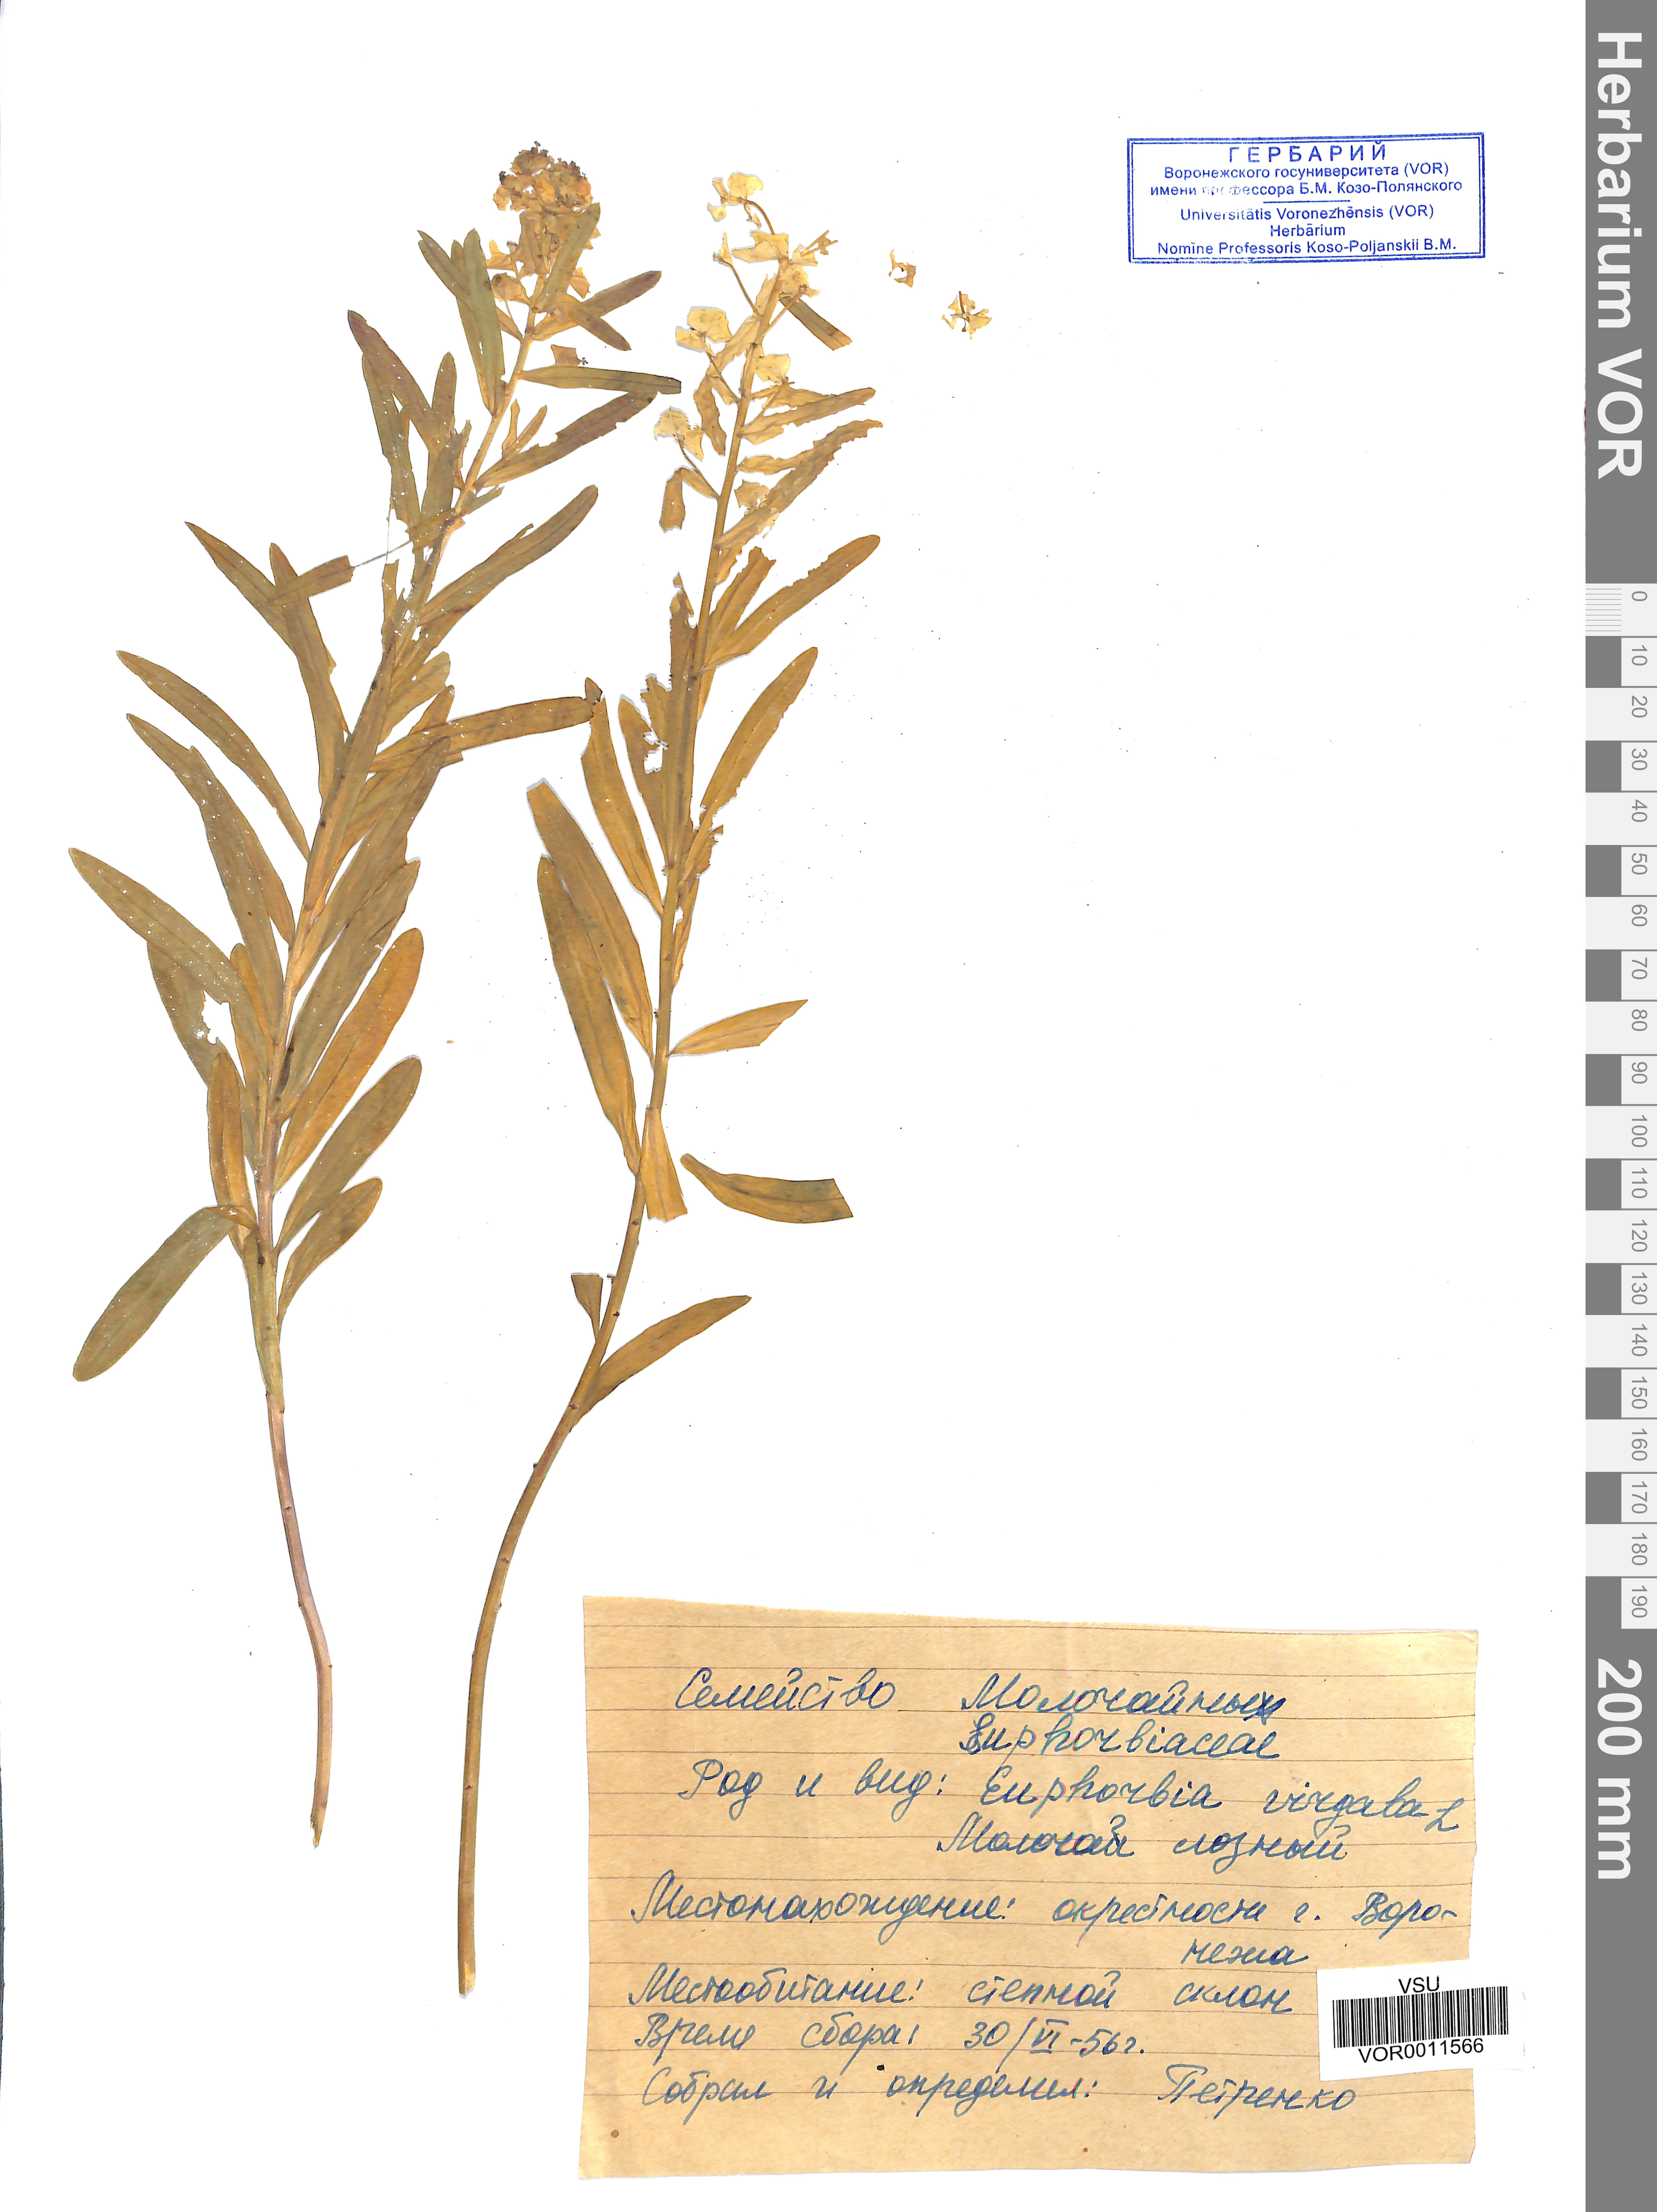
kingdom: Plantae
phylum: Tracheophyta
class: Magnoliopsida
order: Malpighiales
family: Euphorbiaceae
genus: Euphorbia
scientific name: Euphorbia virgata
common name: Leafy spurge
